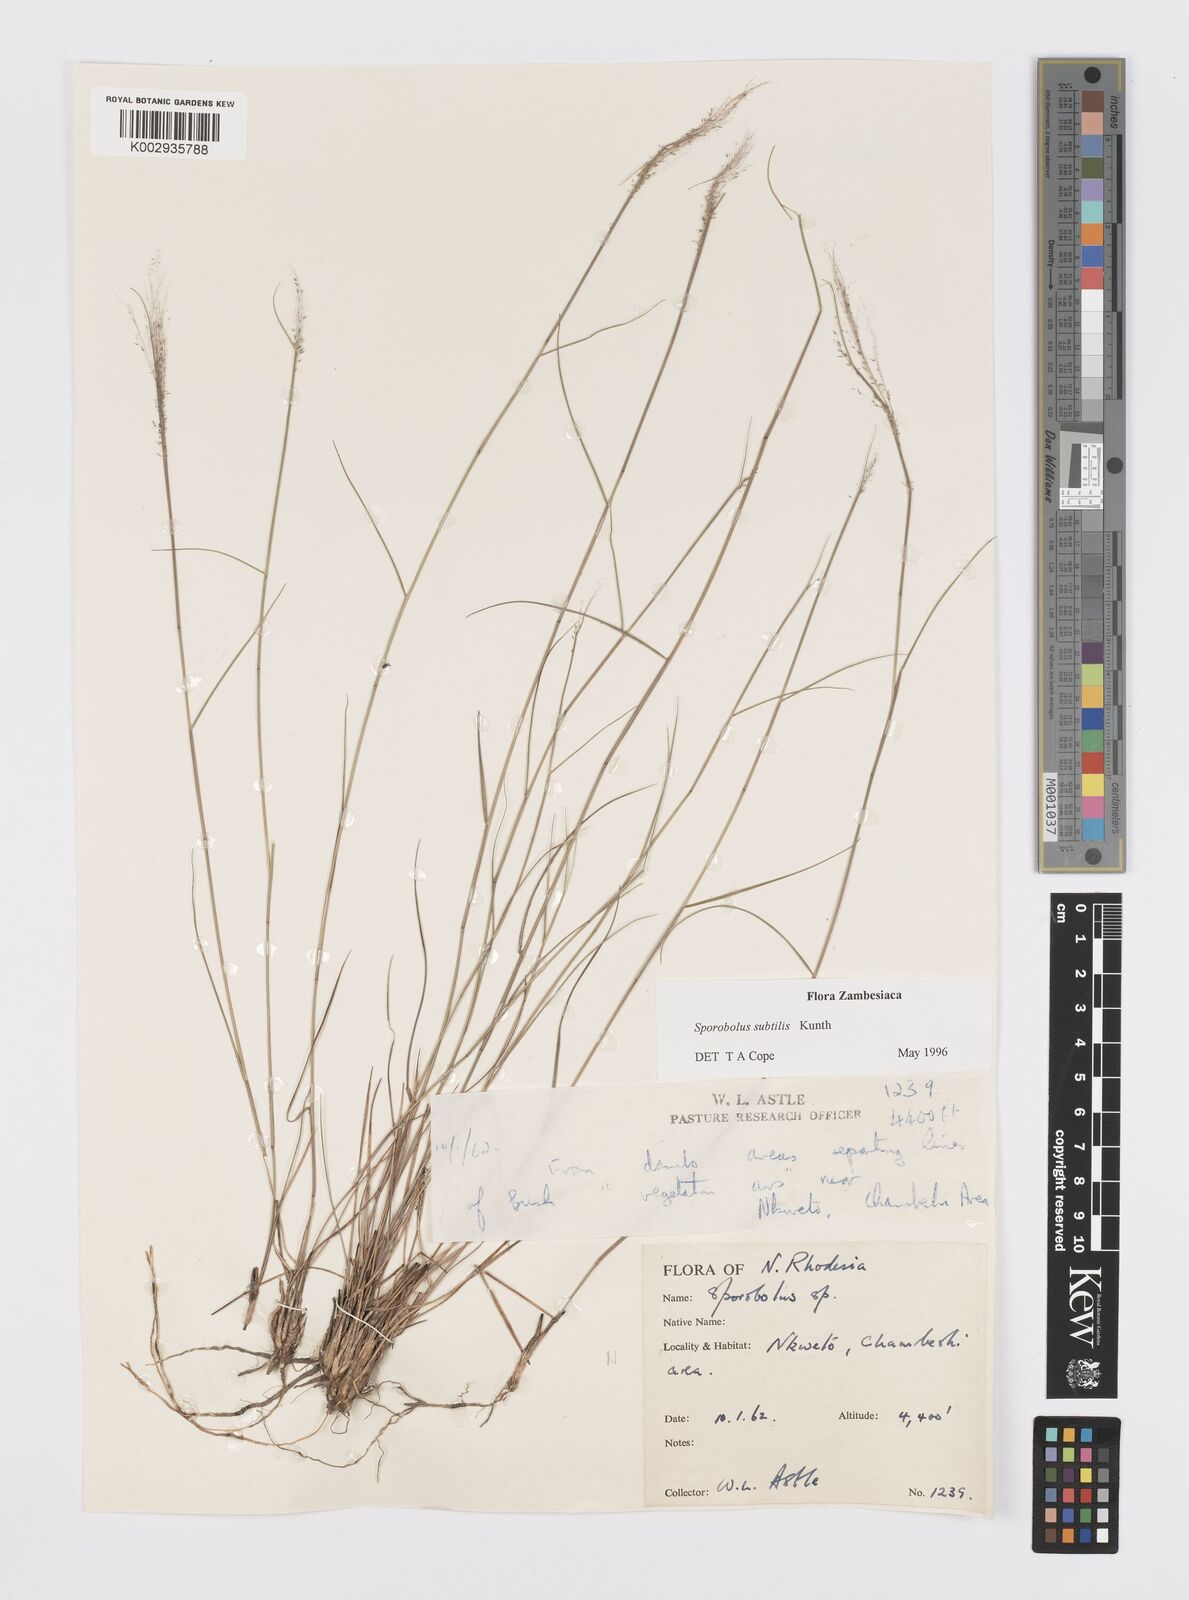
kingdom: Plantae
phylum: Tracheophyta
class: Liliopsida
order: Poales
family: Poaceae
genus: Sporobolus
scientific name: Sporobolus subtilis
